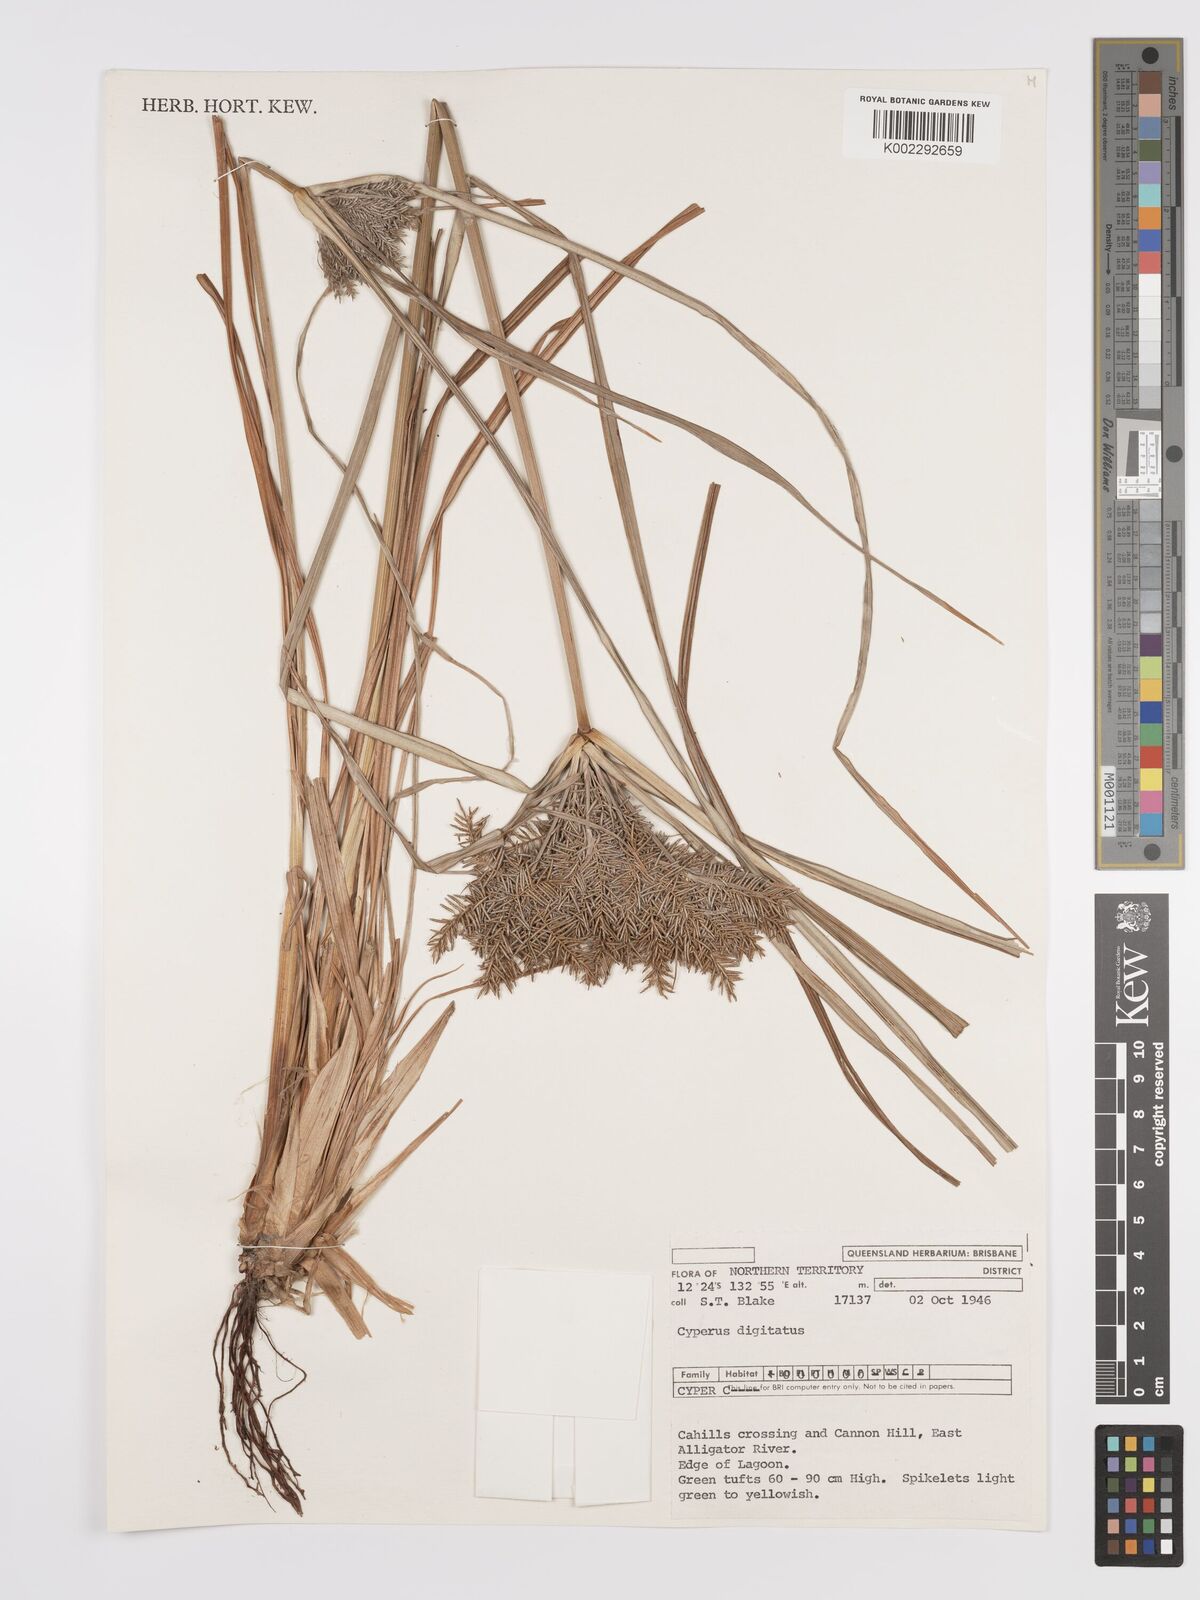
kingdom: Plantae
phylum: Tracheophyta
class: Liliopsida
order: Poales
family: Cyperaceae
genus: Cyperus
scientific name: Cyperus digitatus
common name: Finger flatsedge
